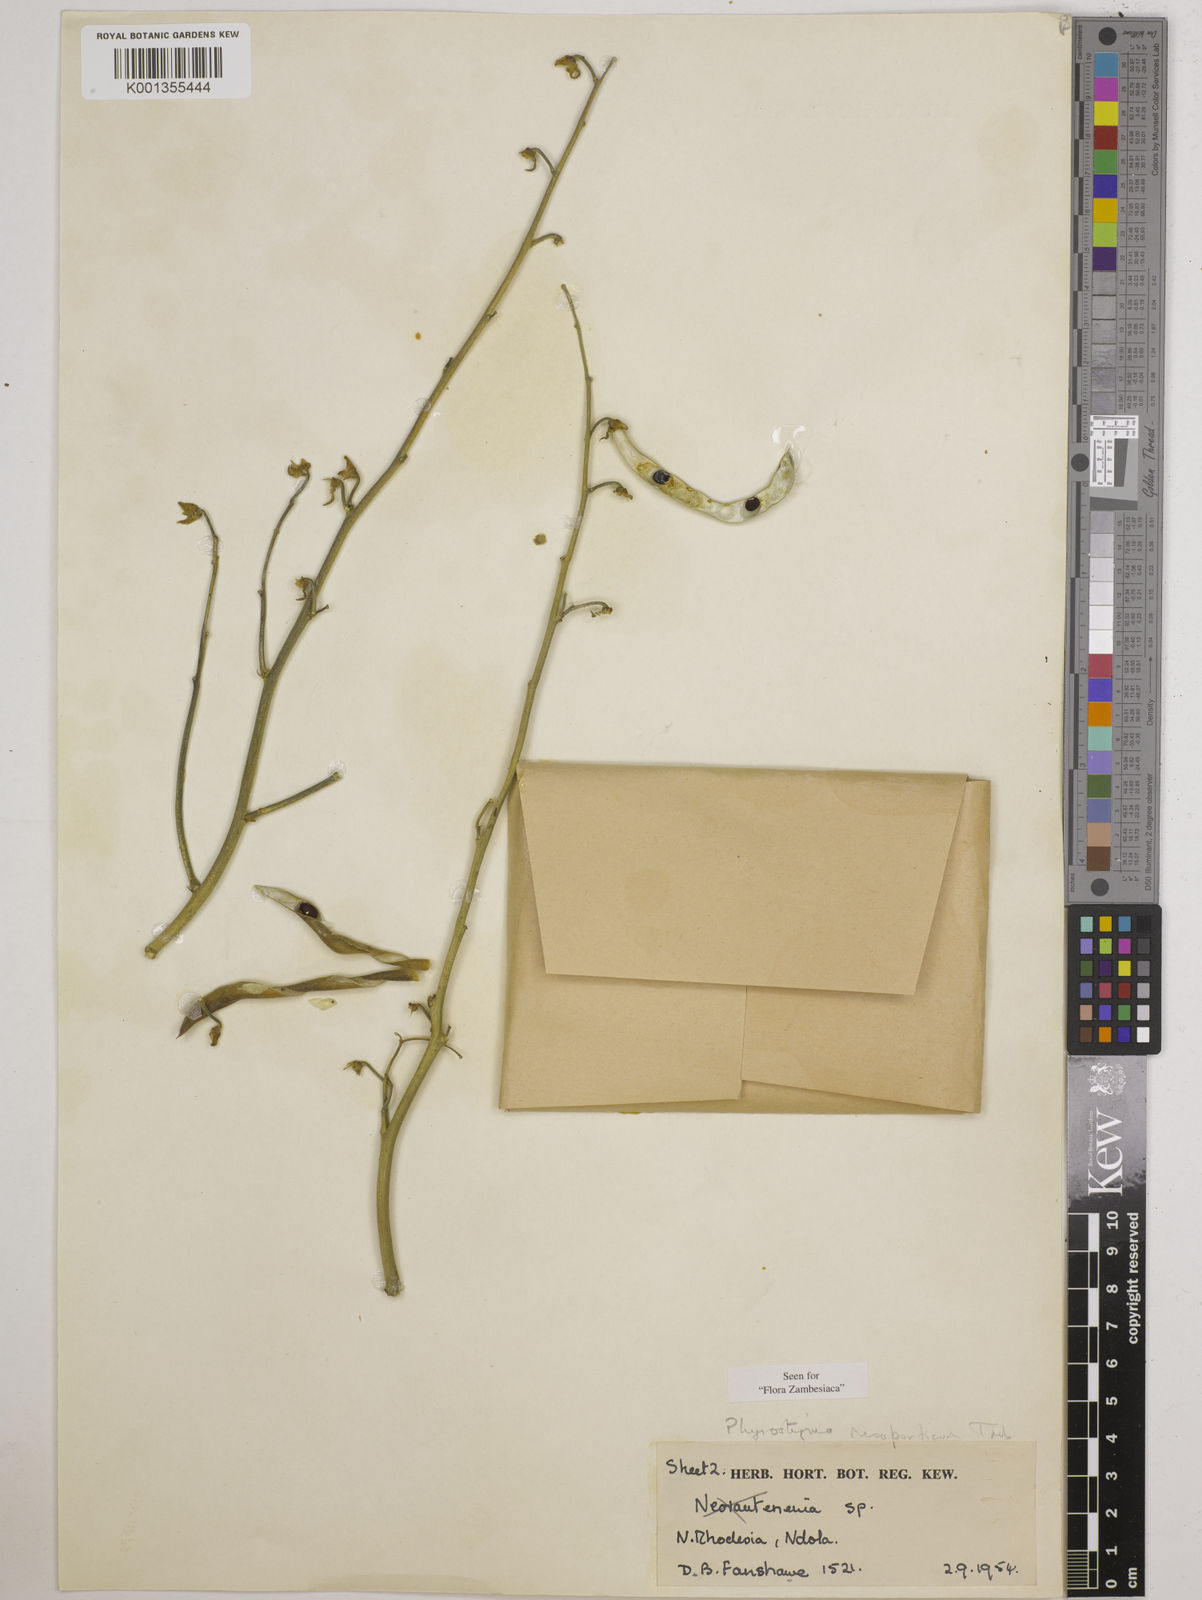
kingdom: Plantae
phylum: Tracheophyta
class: Magnoliopsida
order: Fabales
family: Fabaceae
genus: Physostigma
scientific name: Physostigma mesoponticum
